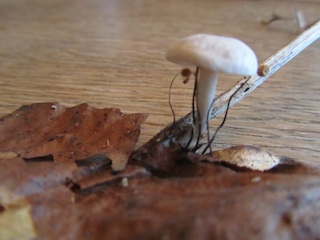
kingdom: Fungi
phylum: Basidiomycota
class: Agaricomycetes
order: Agaricales
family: Tricholomataceae
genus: Leucocybe
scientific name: Leucocybe candicans
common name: kridt-tragthat
